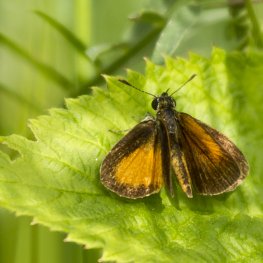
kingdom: Animalia
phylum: Arthropoda
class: Insecta
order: Lepidoptera
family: Hesperiidae
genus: Ancyloxypha
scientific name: Ancyloxypha numitor
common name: Least Skipper
